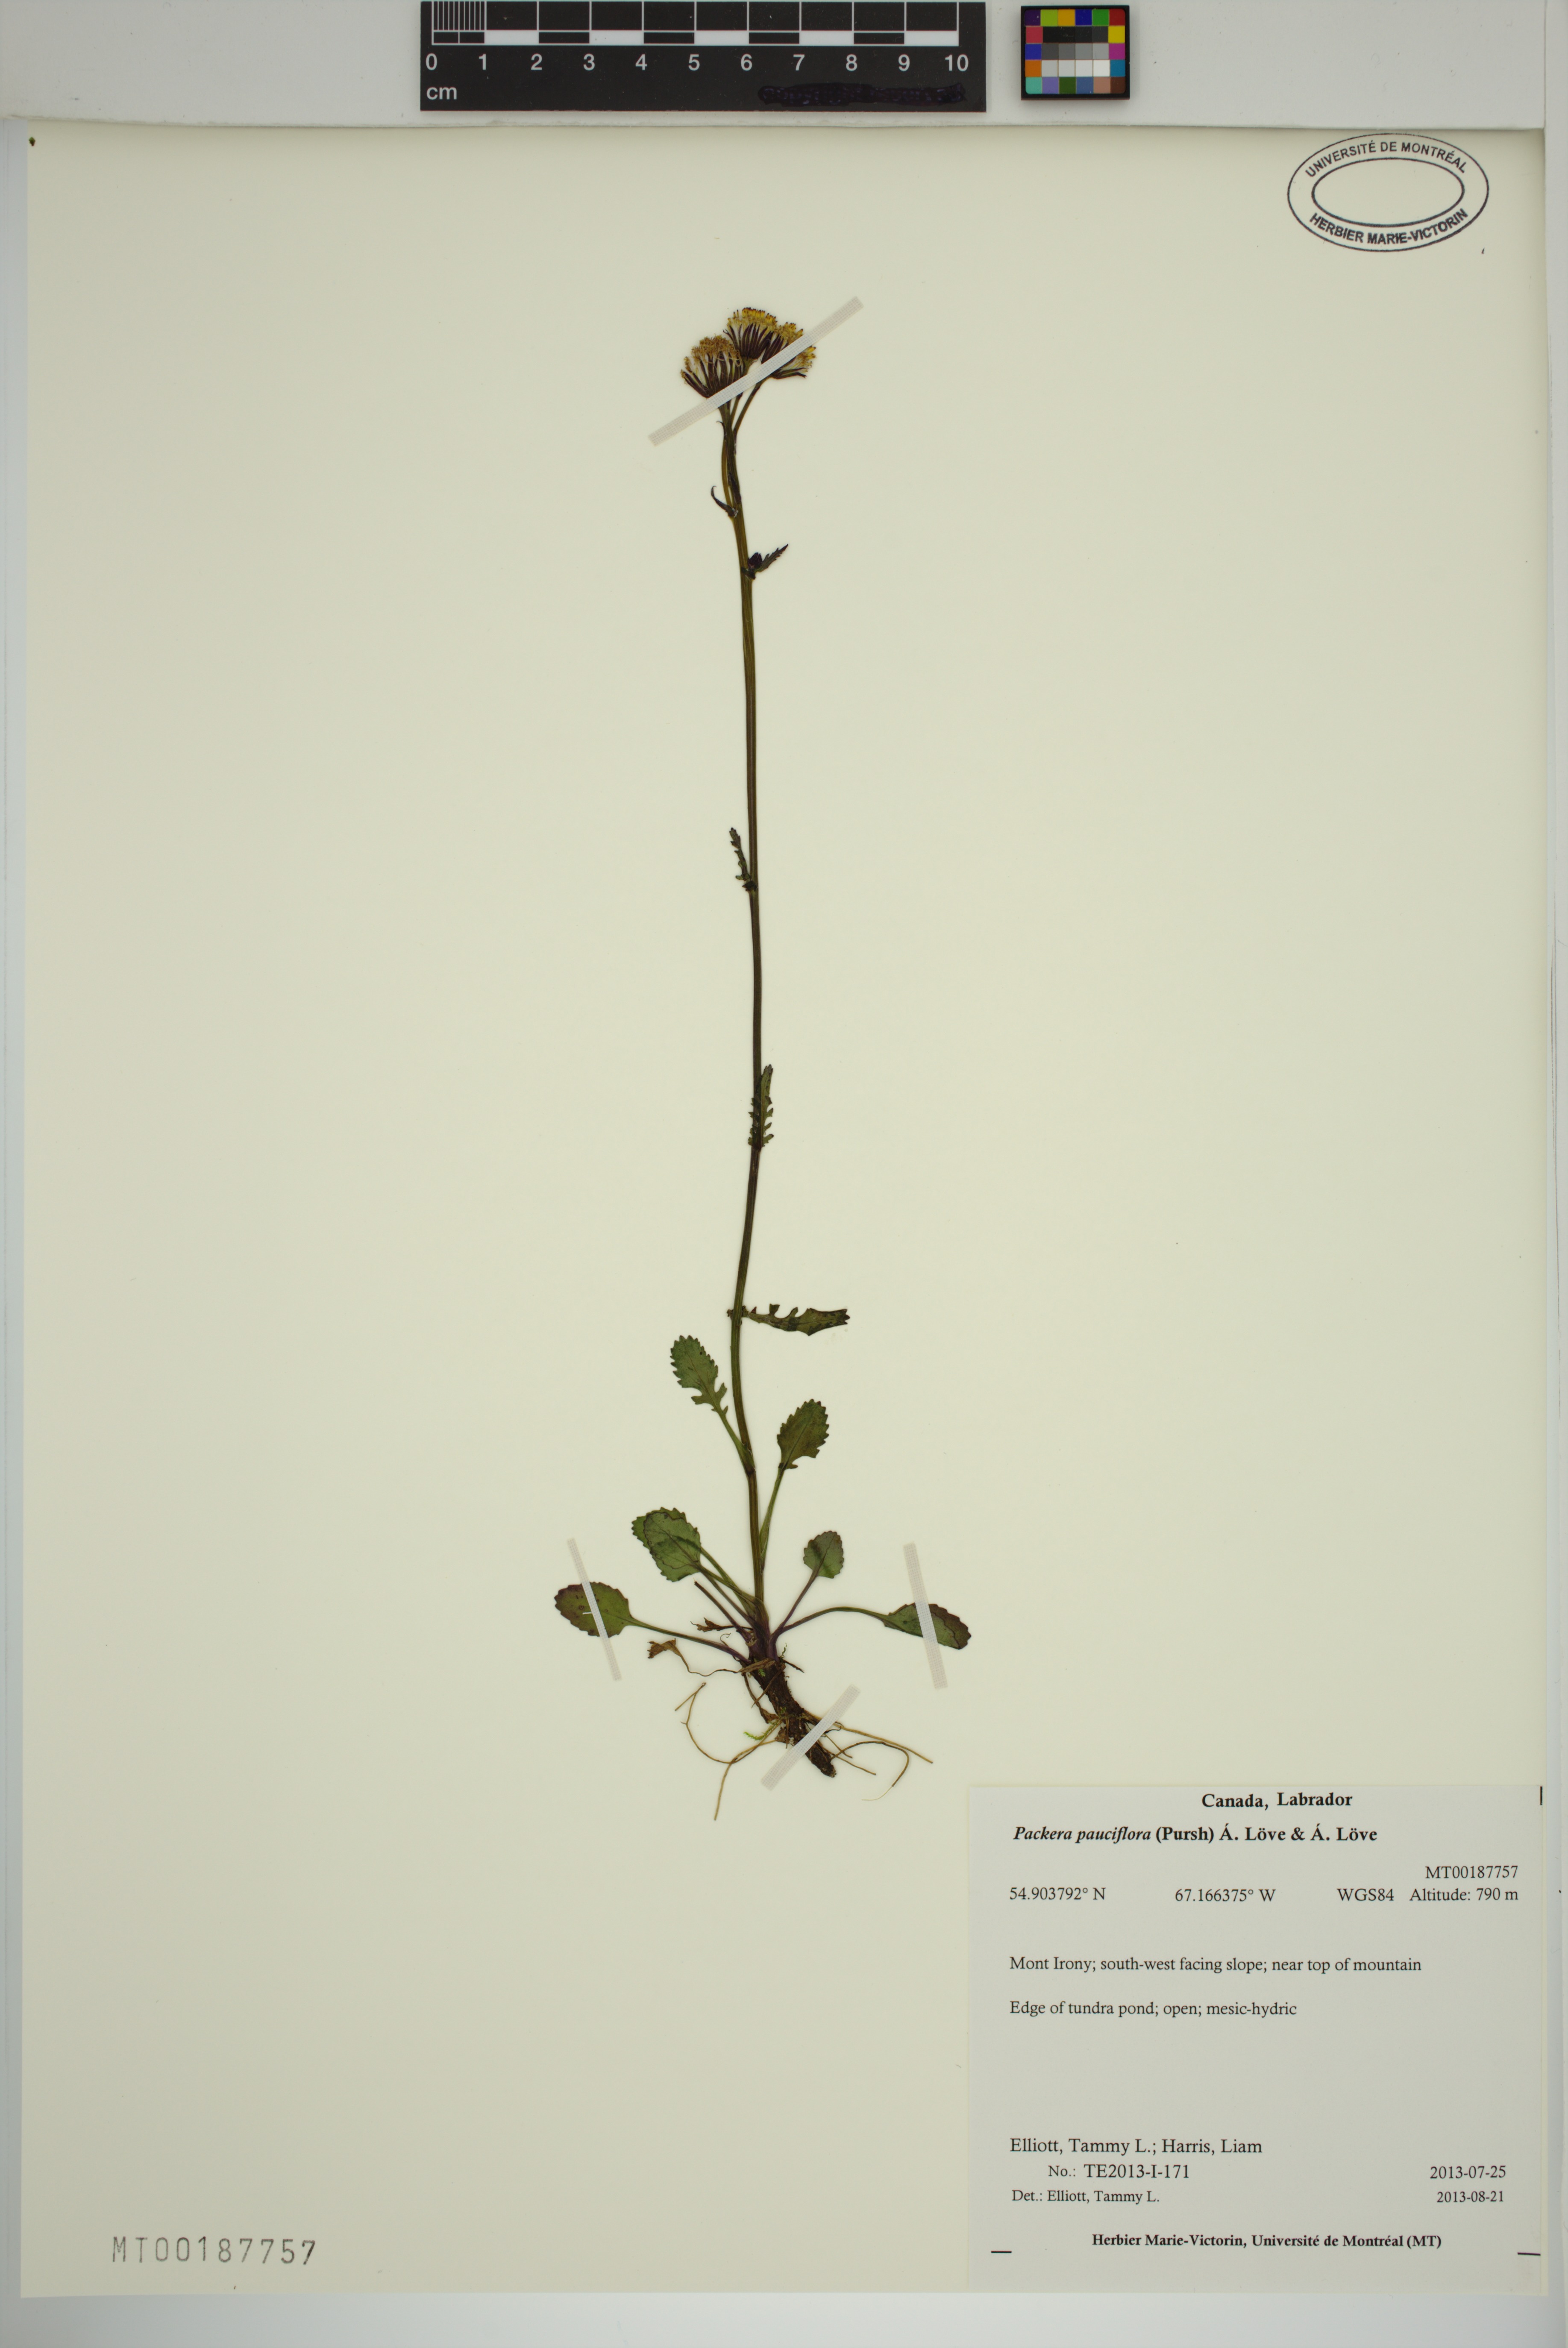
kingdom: Plantae
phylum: Tracheophyta
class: Magnoliopsida
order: Asterales
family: Asteraceae
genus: Packera
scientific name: Packera pauciflora
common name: Alpine groundsel
